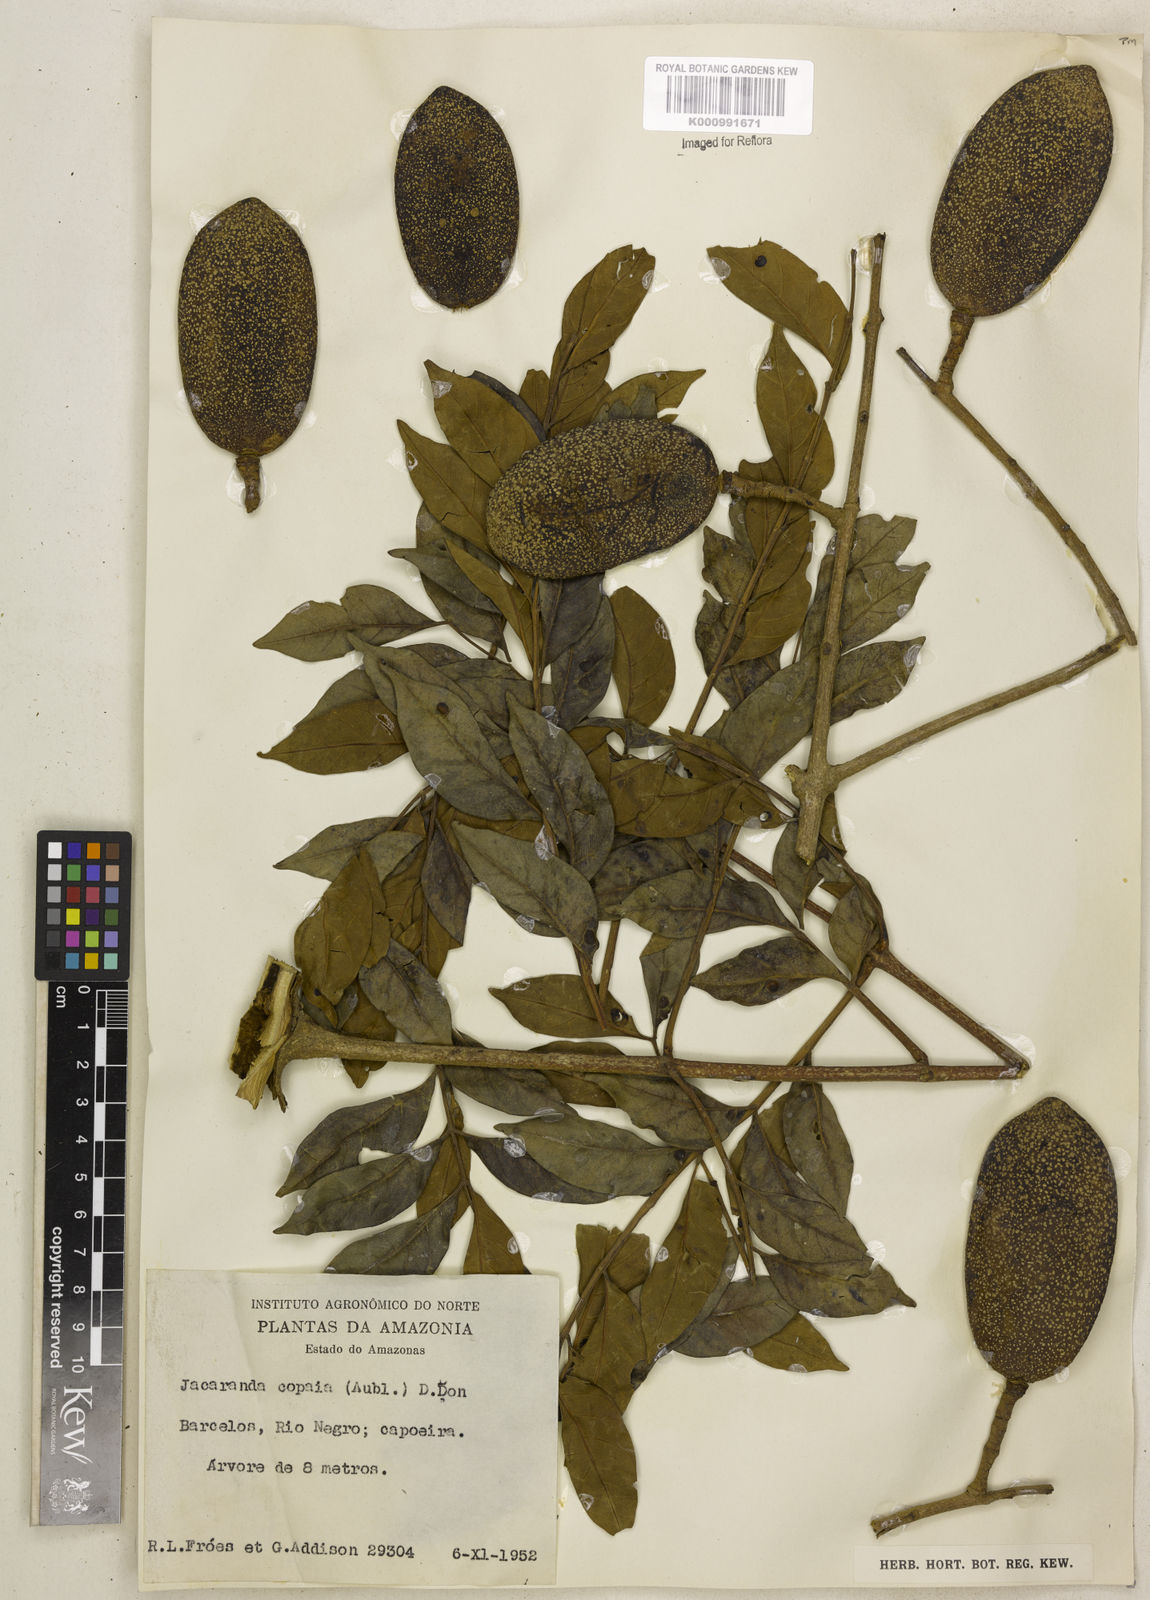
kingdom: Plantae
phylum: Tracheophyta
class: Magnoliopsida
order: Lamiales
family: Bignoniaceae
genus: Jacaranda
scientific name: Jacaranda copaia
